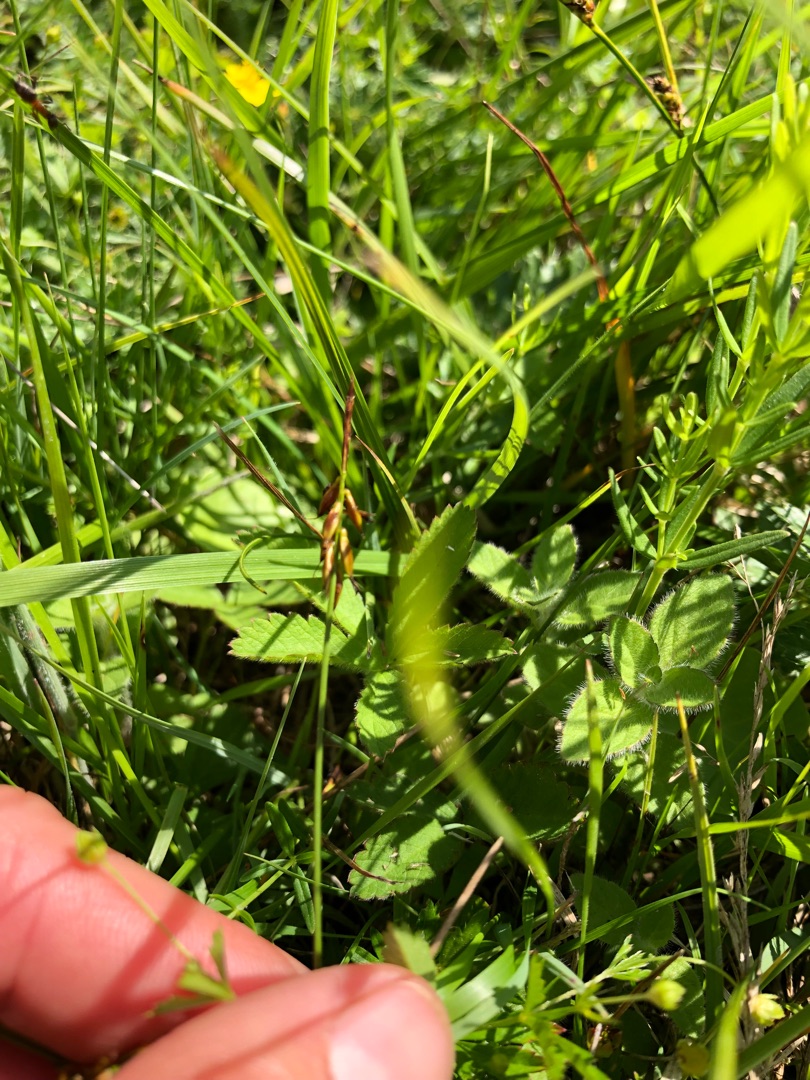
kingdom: Plantae
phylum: Tracheophyta
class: Liliopsida
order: Poales
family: Cyperaceae
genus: Carex
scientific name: Carex pulicaris
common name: Loppe-star
